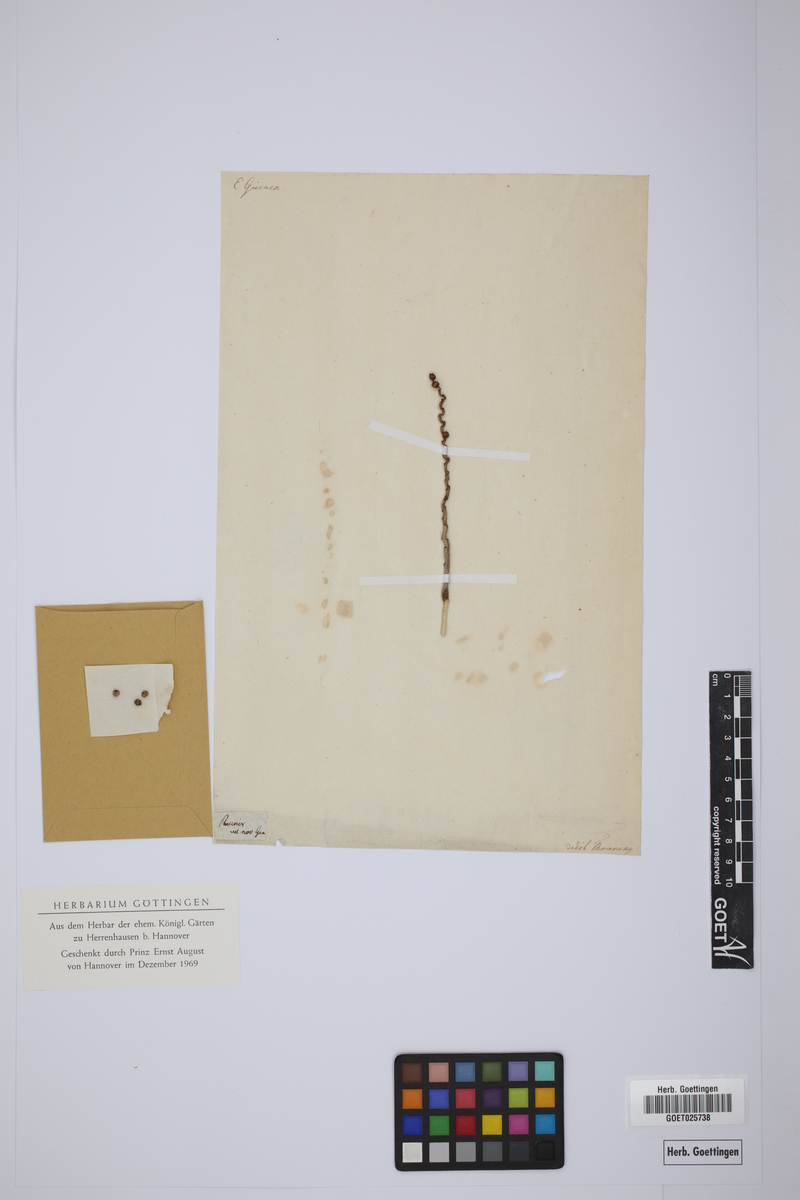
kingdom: Plantae
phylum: Tracheophyta
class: Liliopsida
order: Arecales
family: Arecaceae
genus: Phoenix
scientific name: Phoenix reclinata
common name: Senegal date palm
